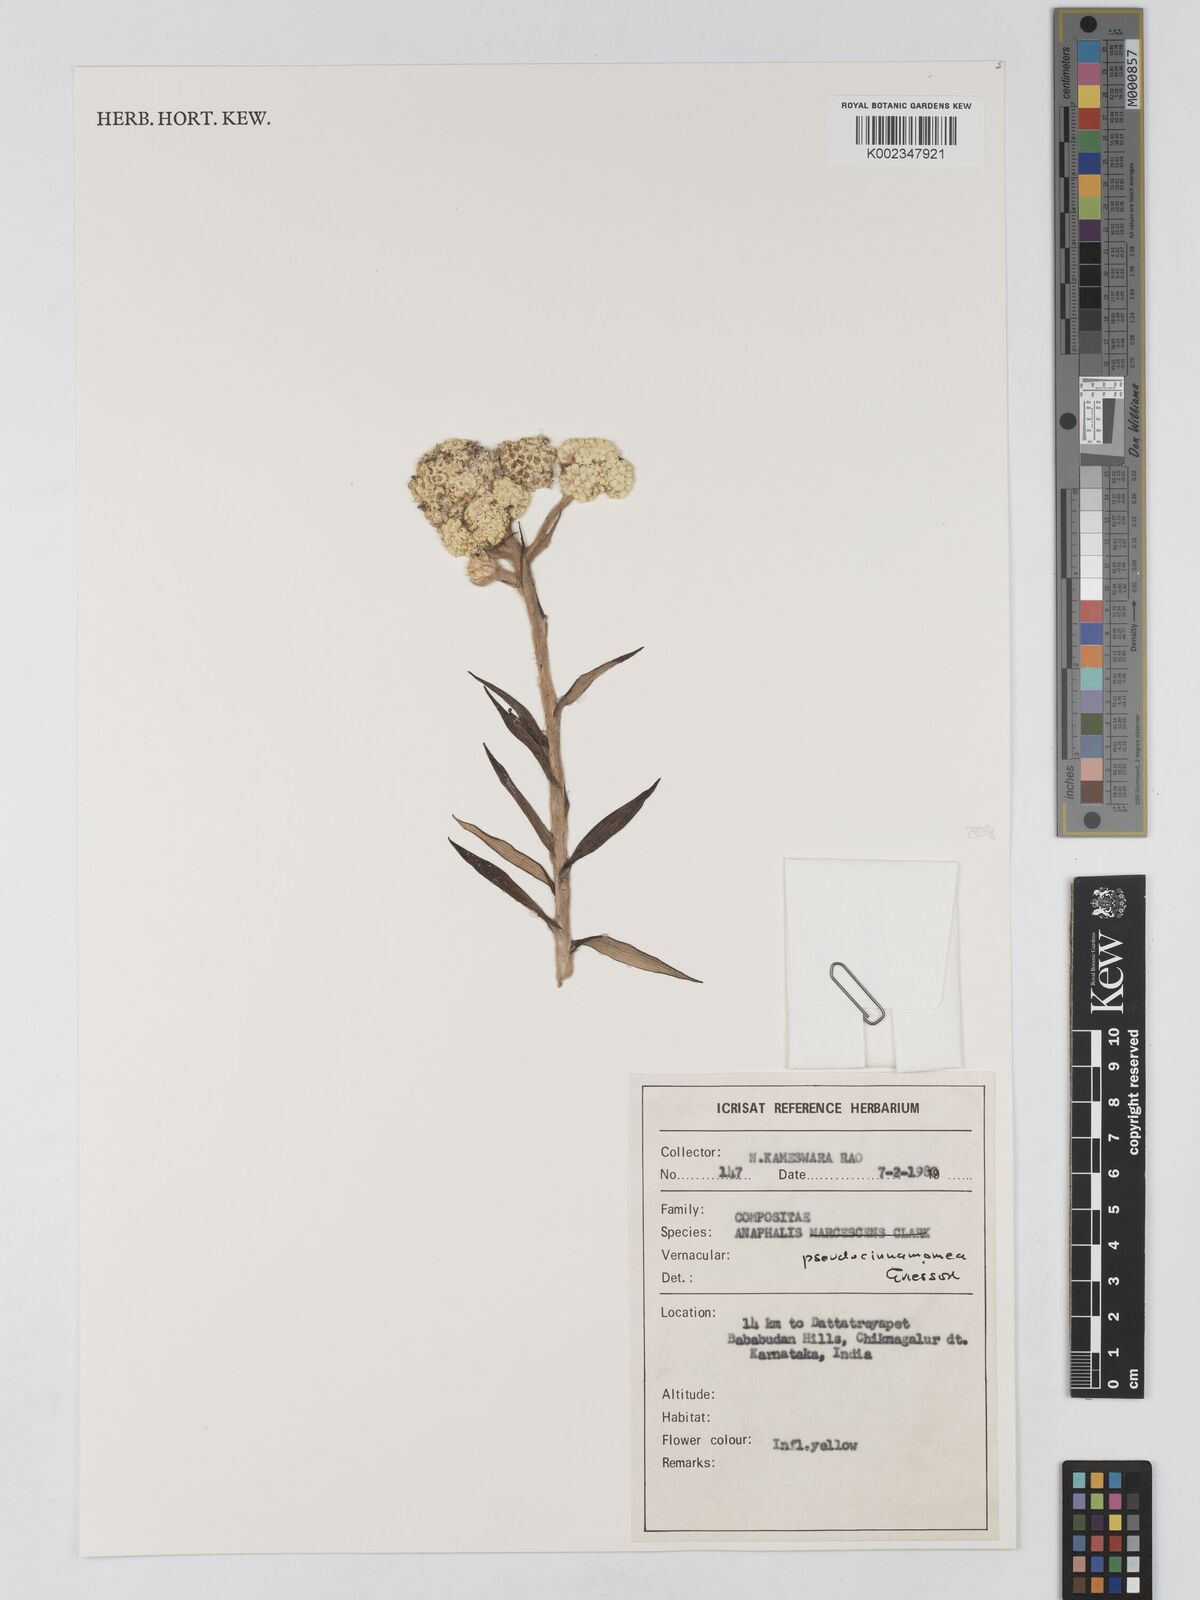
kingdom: Plantae
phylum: Tracheophyta
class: Magnoliopsida
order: Asterales
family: Asteraceae
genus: Anaphalis
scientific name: Anaphalis pseudocinnamomea
